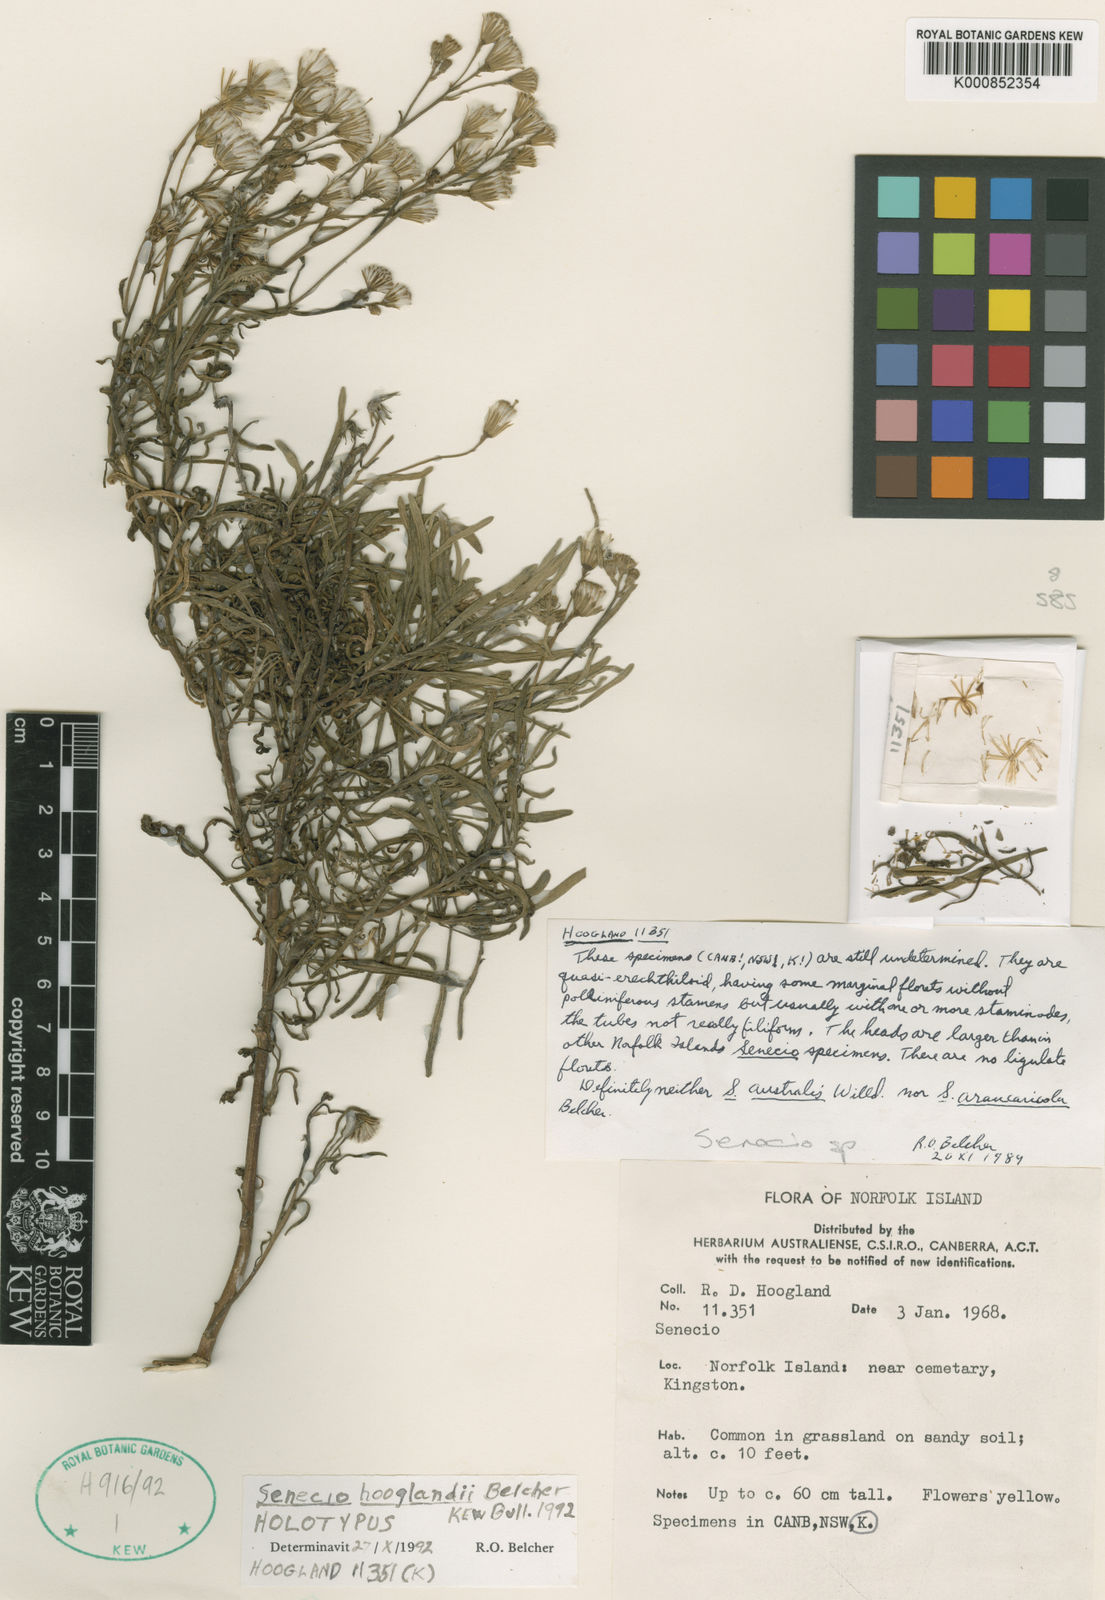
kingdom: Plantae
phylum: Tracheophyta
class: Magnoliopsida
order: Asterales
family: Asteraceae
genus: Senecio
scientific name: Senecio hooglandii
